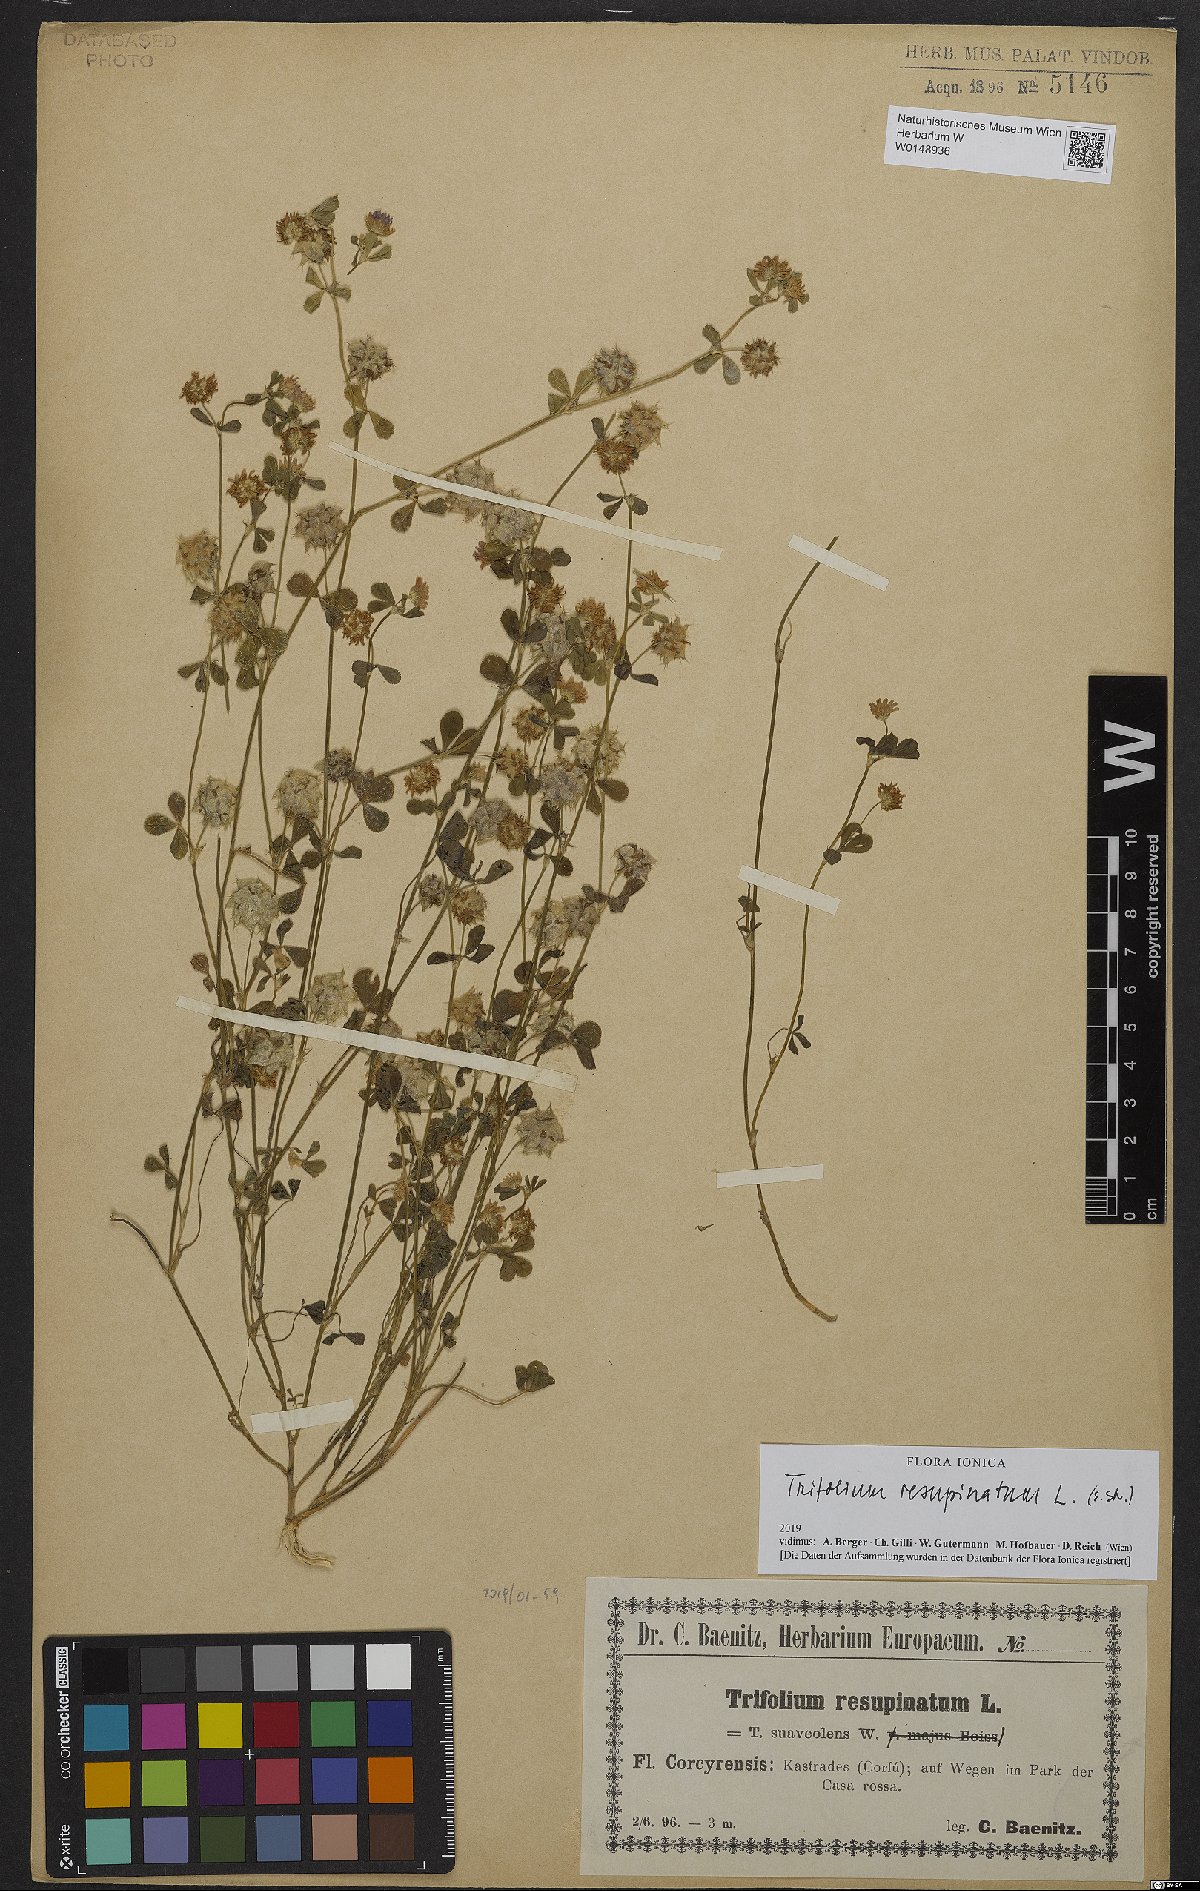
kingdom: Plantae
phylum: Tracheophyta
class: Magnoliopsida
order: Fabales
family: Fabaceae
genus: Trifolium
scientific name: Trifolium resupinatum
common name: Reversed clover
